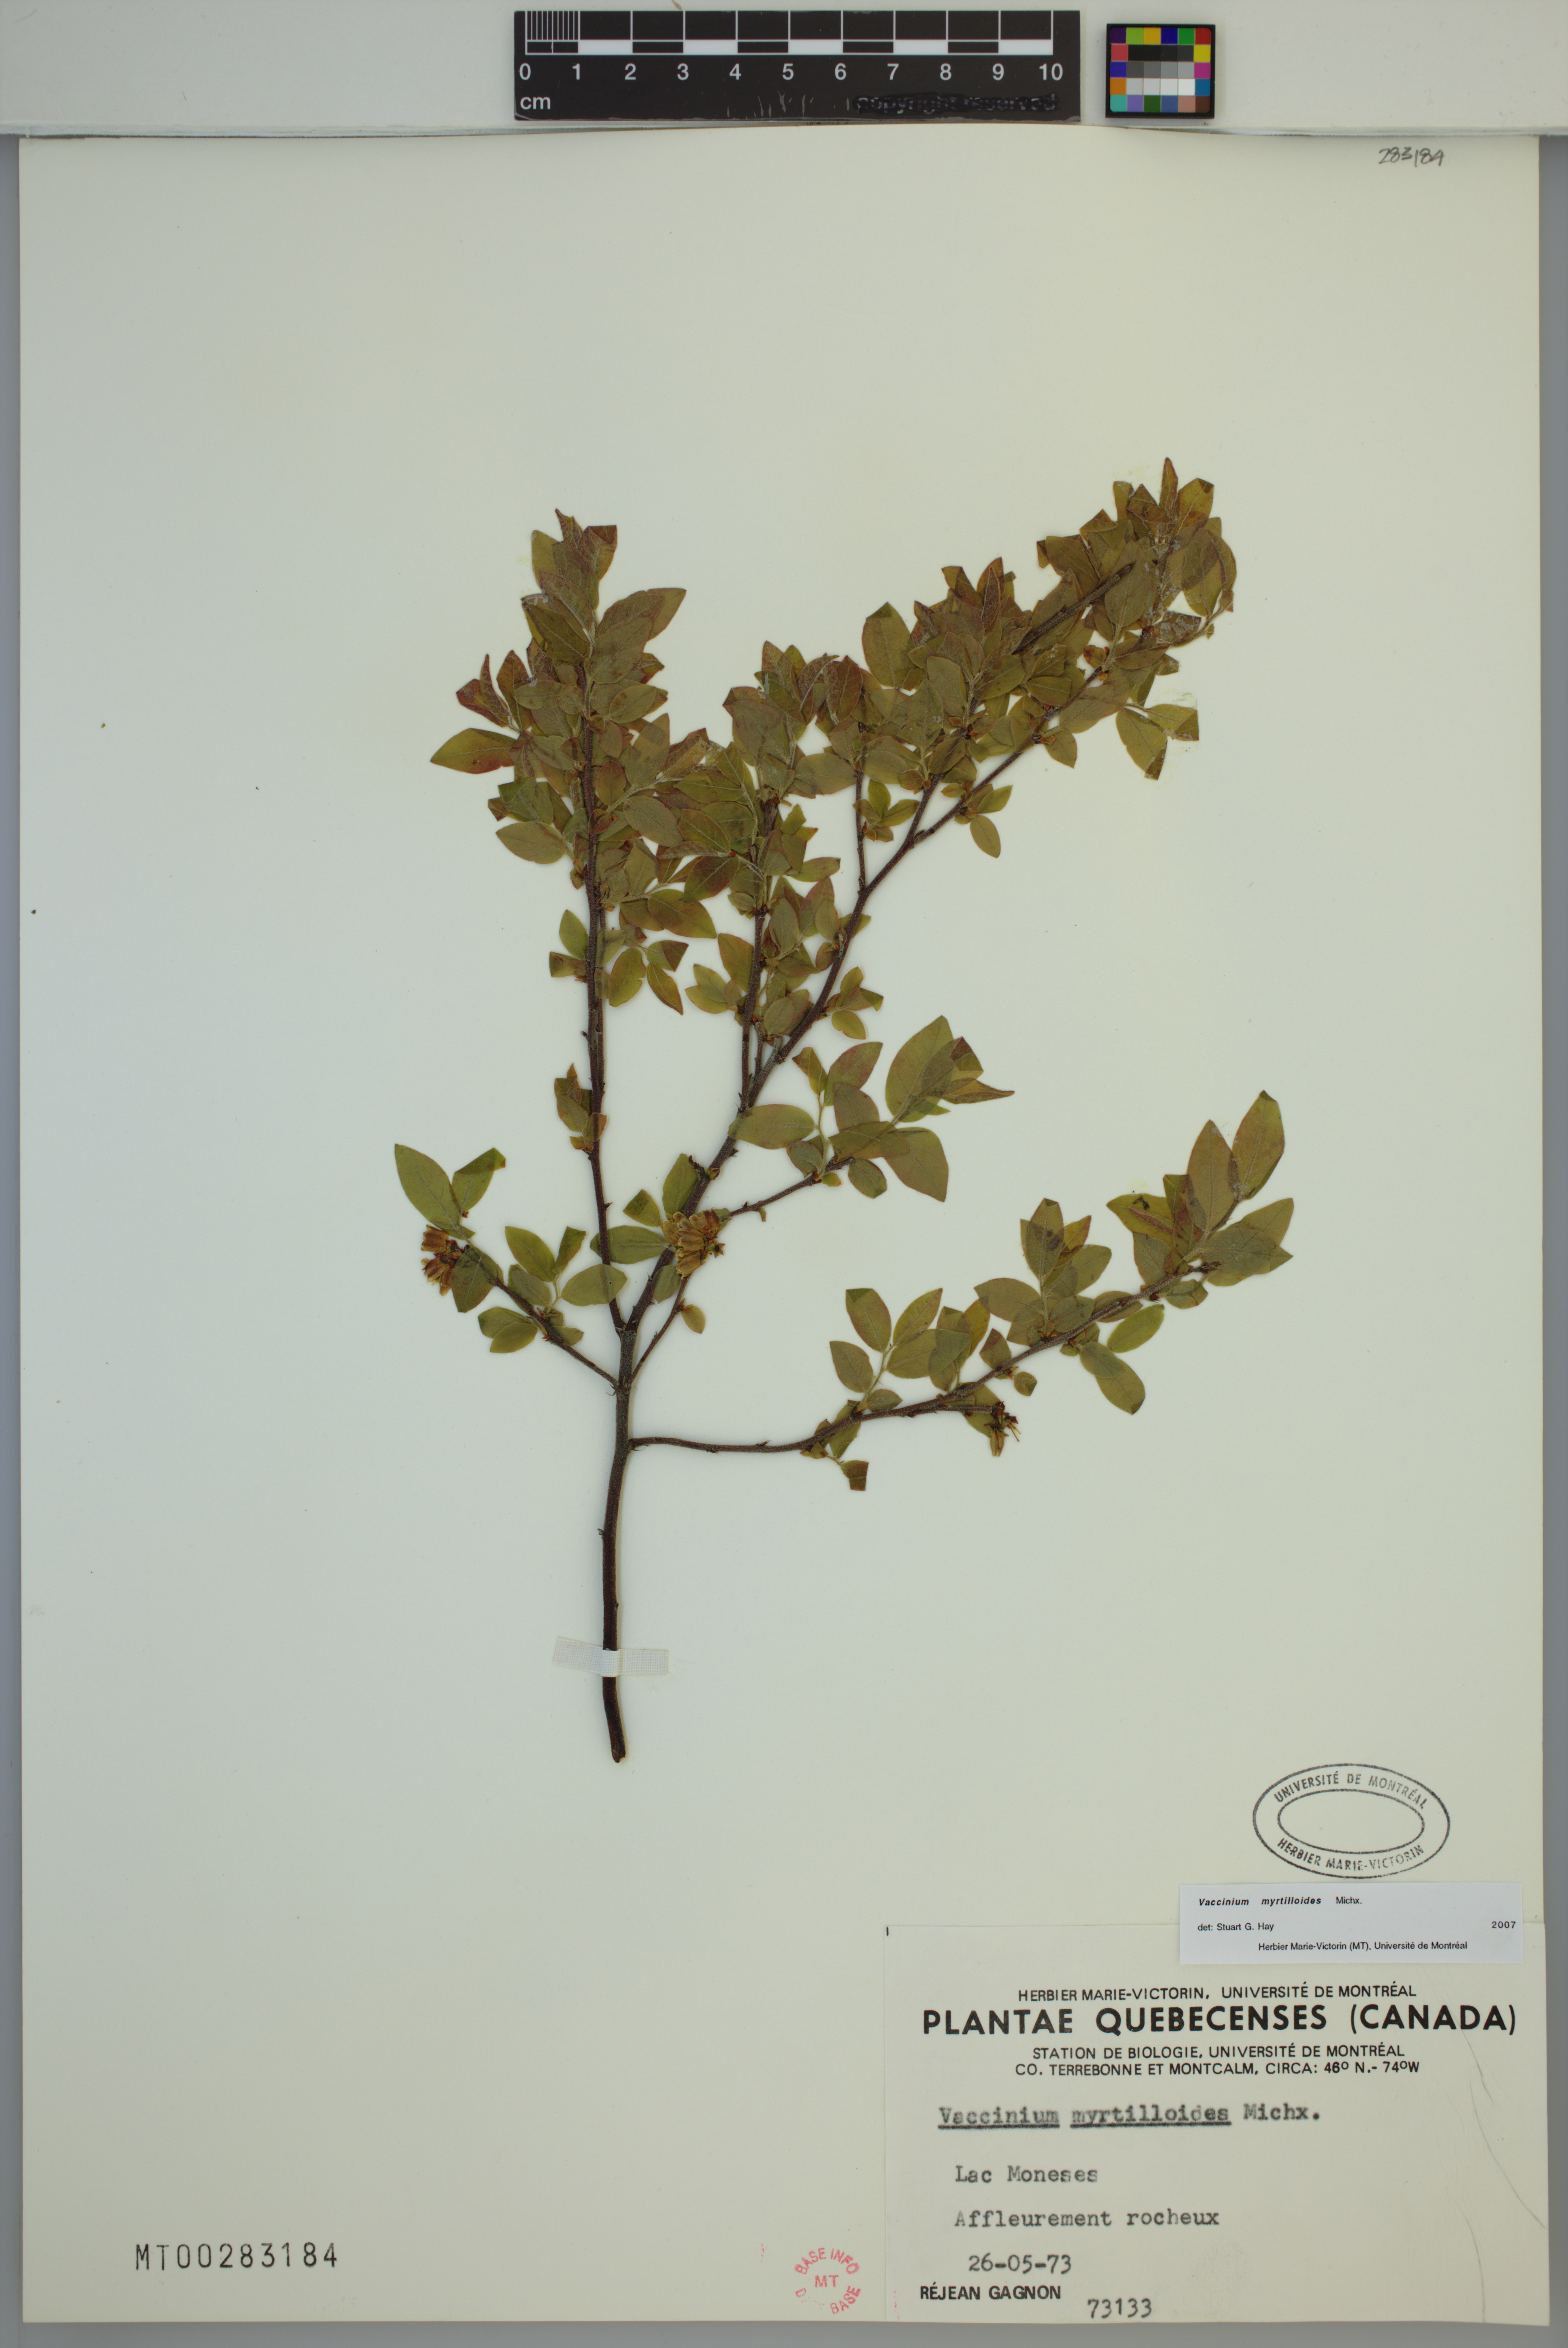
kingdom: Plantae
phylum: Tracheophyta
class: Magnoliopsida
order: Ericales
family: Ericaceae
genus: Vaccinium
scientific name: Vaccinium myrtilloides
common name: Canada blueberry
